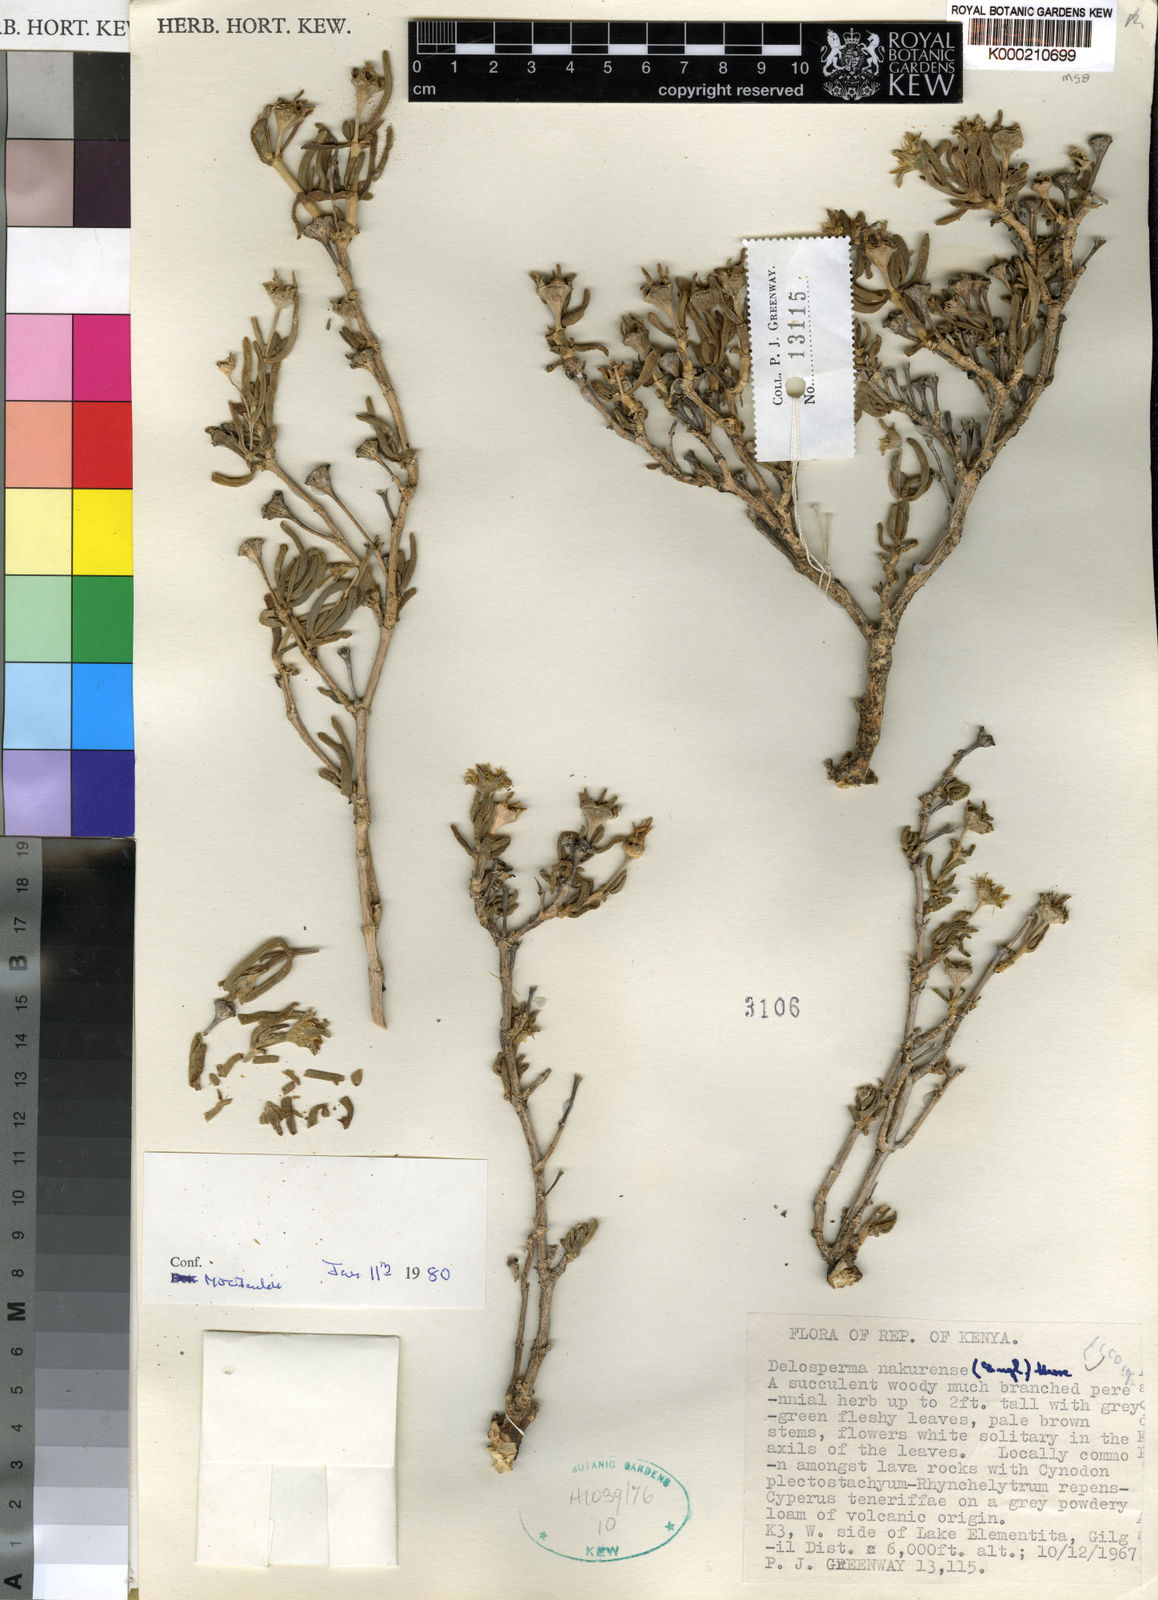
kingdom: Plantae
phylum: Tracheophyta
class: Magnoliopsida
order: Caryophyllales
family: Aizoaceae
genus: Delosperma
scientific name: Delosperma nakurense
